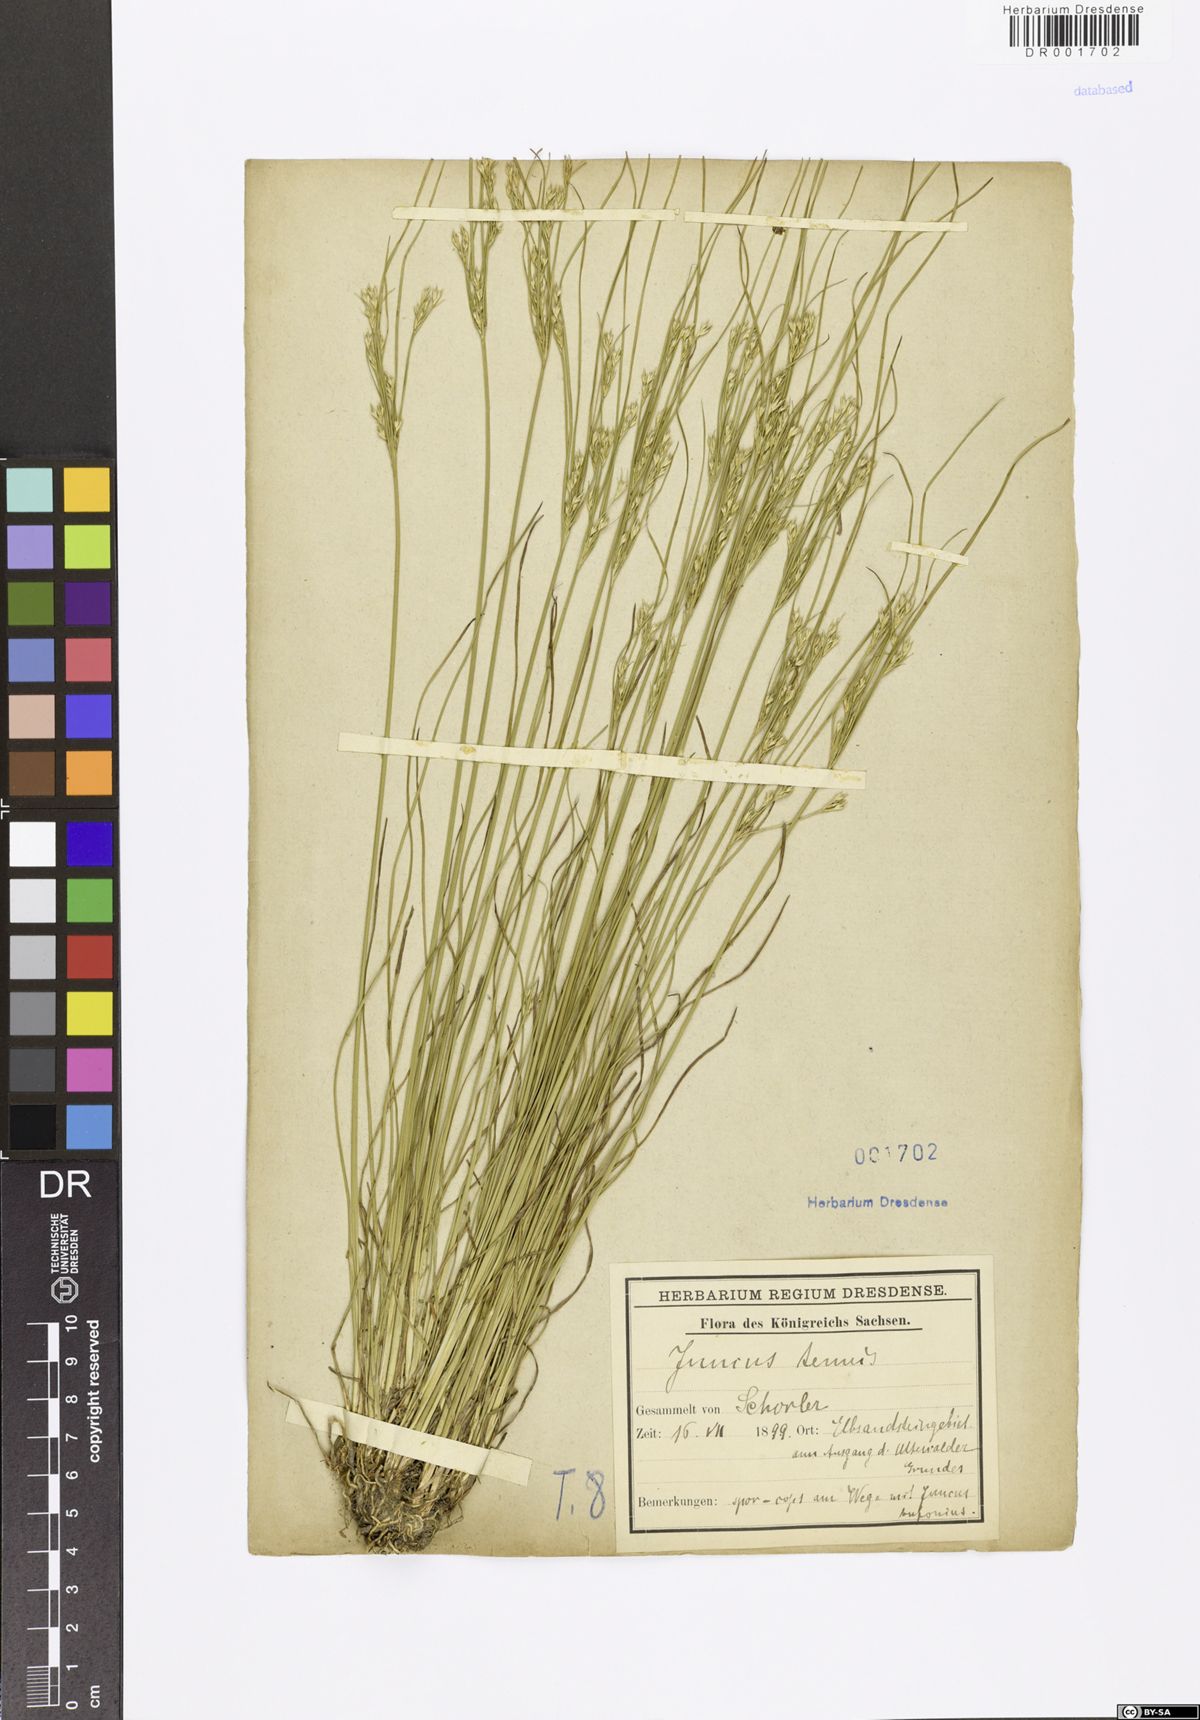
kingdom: Plantae
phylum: Tracheophyta
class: Liliopsida
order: Poales
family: Juncaceae
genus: Juncus
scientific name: Juncus tenuis
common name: Slender rush
